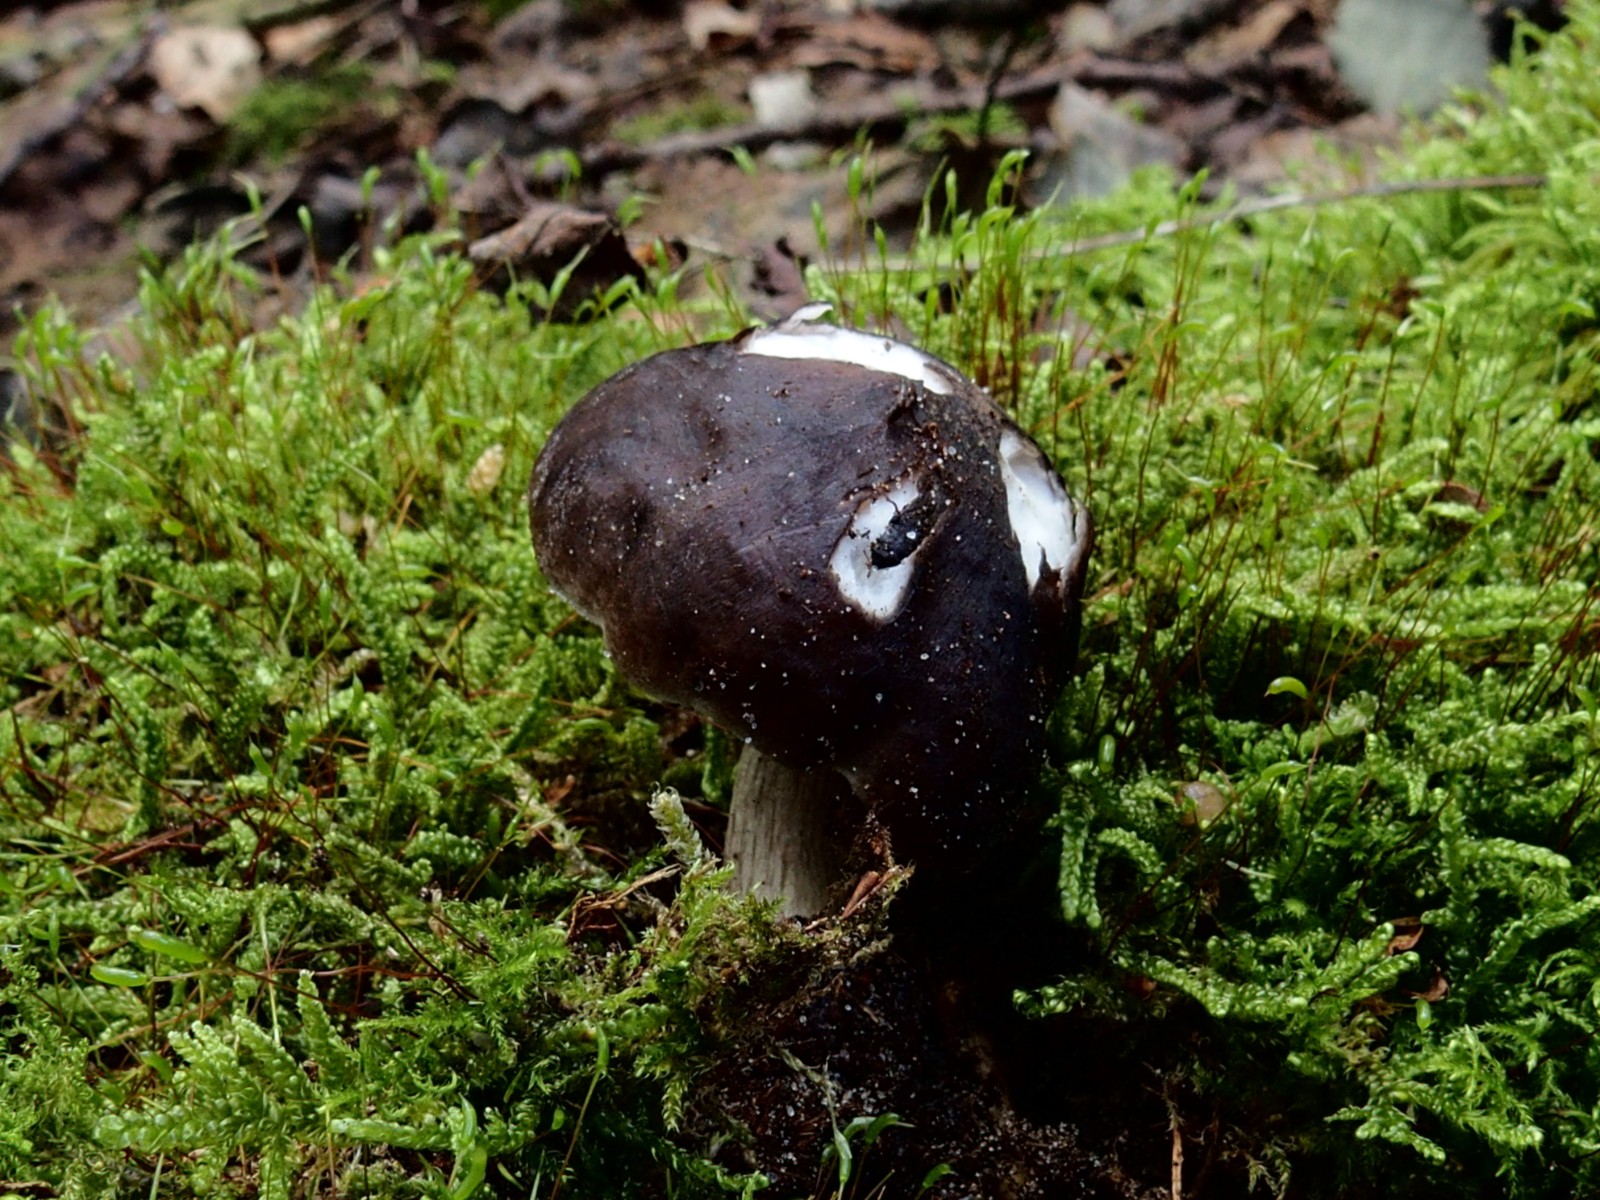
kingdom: Fungi
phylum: Basidiomycota
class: Agaricomycetes
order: Agaricales
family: Pluteaceae
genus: Pluteus
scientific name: Pluteus pouzarianus
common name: plantage-skærmhat
